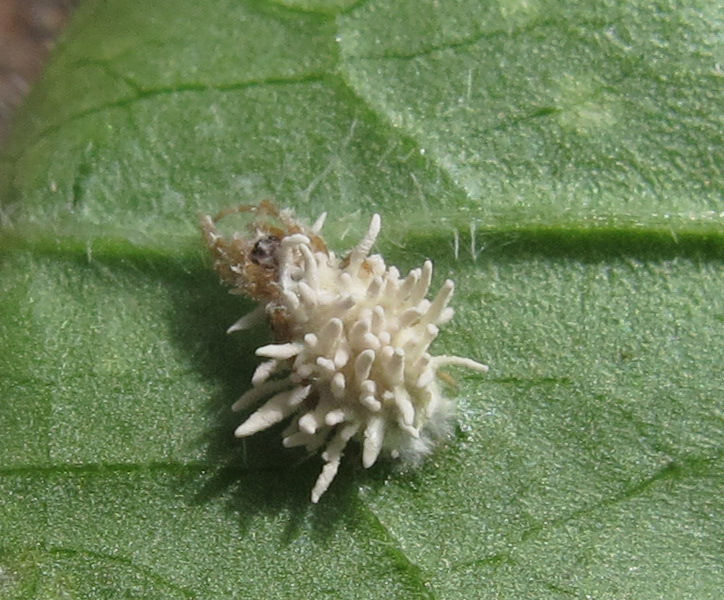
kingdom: Fungi
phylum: Ascomycota
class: Sordariomycetes
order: Hypocreales
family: Cordycipitaceae
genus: Gibellula
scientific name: Gibellula arachnophila
